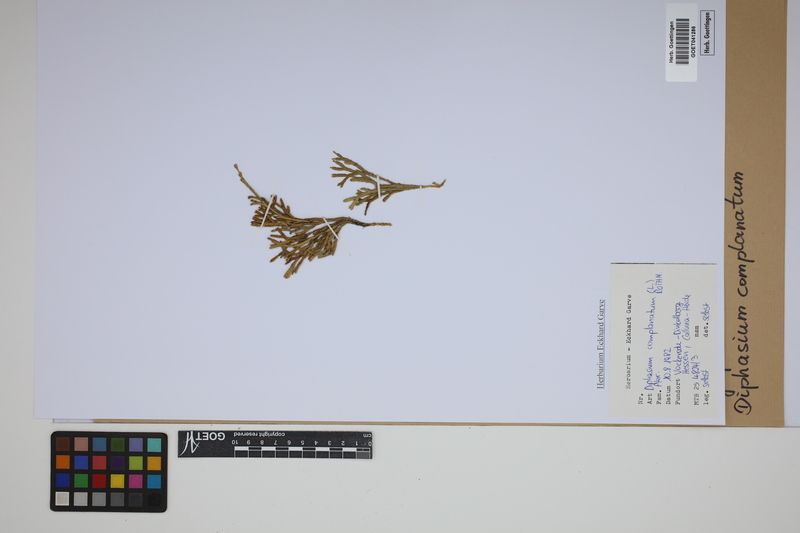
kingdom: Plantae
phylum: Tracheophyta
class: Lycopodiopsida
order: Lycopodiales
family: Lycopodiaceae
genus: Diphasiastrum
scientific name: Diphasiastrum complanatum
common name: Northern running-pine
